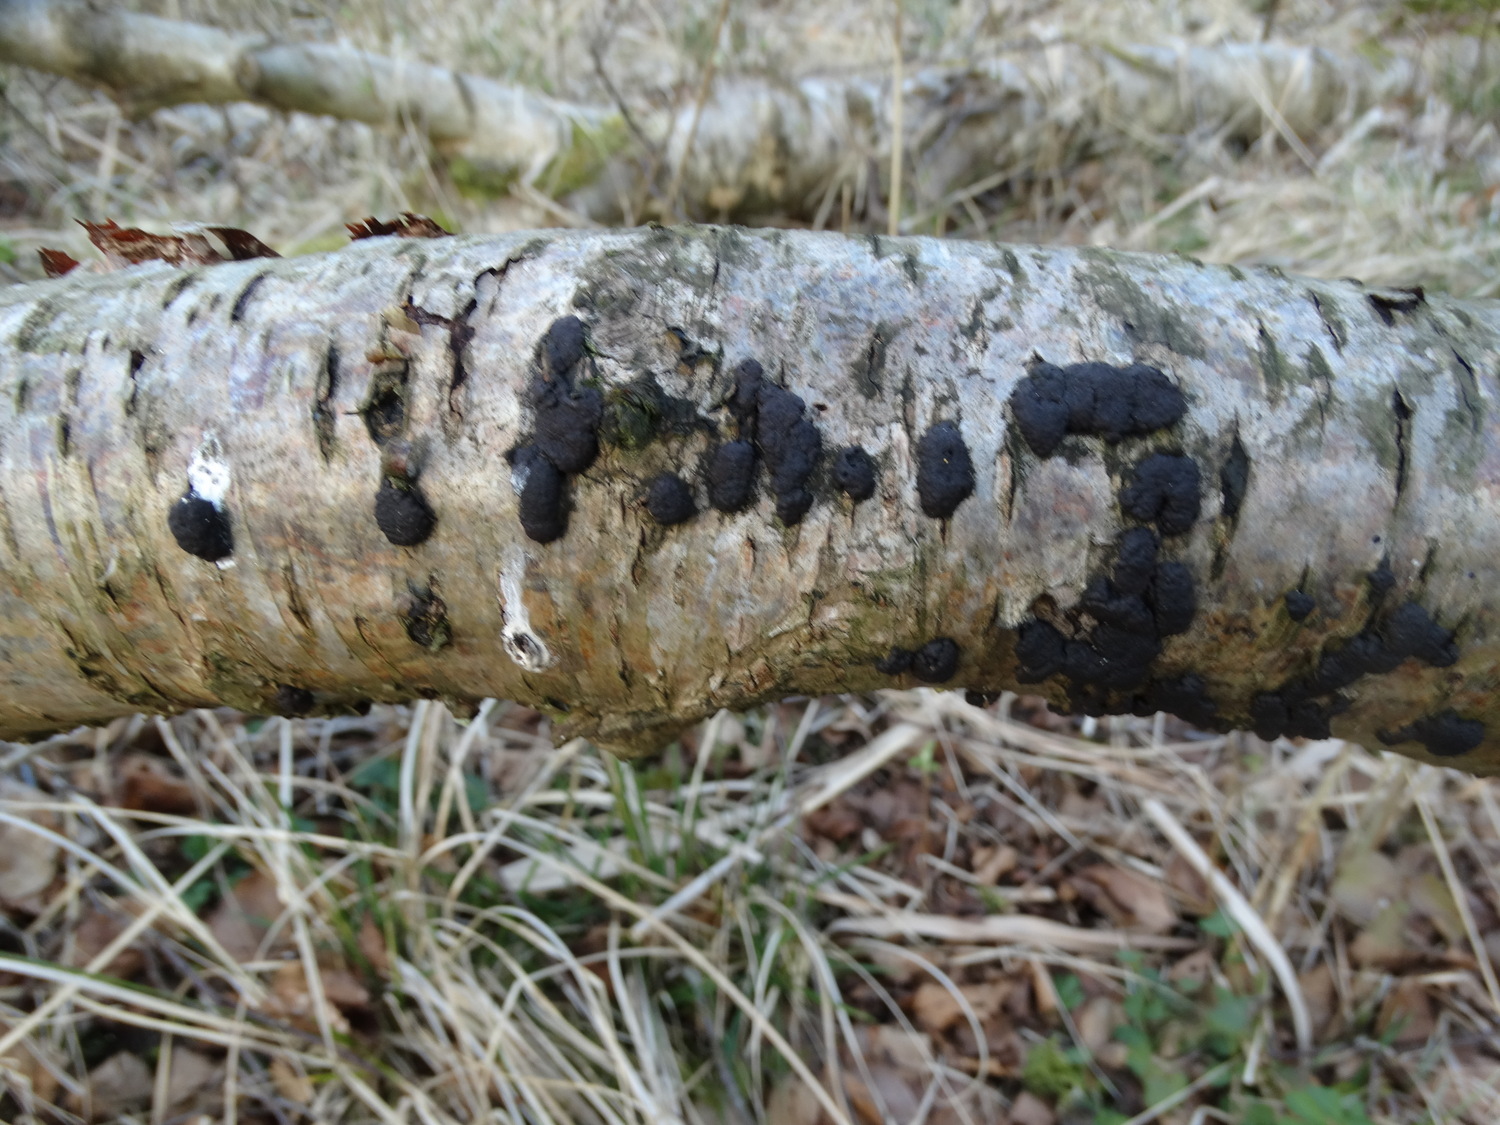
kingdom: Fungi
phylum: Ascomycota
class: Sordariomycetes
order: Xylariales
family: Hypoxylaceae
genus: Jackrogersella
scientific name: Jackrogersella multiformis
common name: foranderlig kulbær
